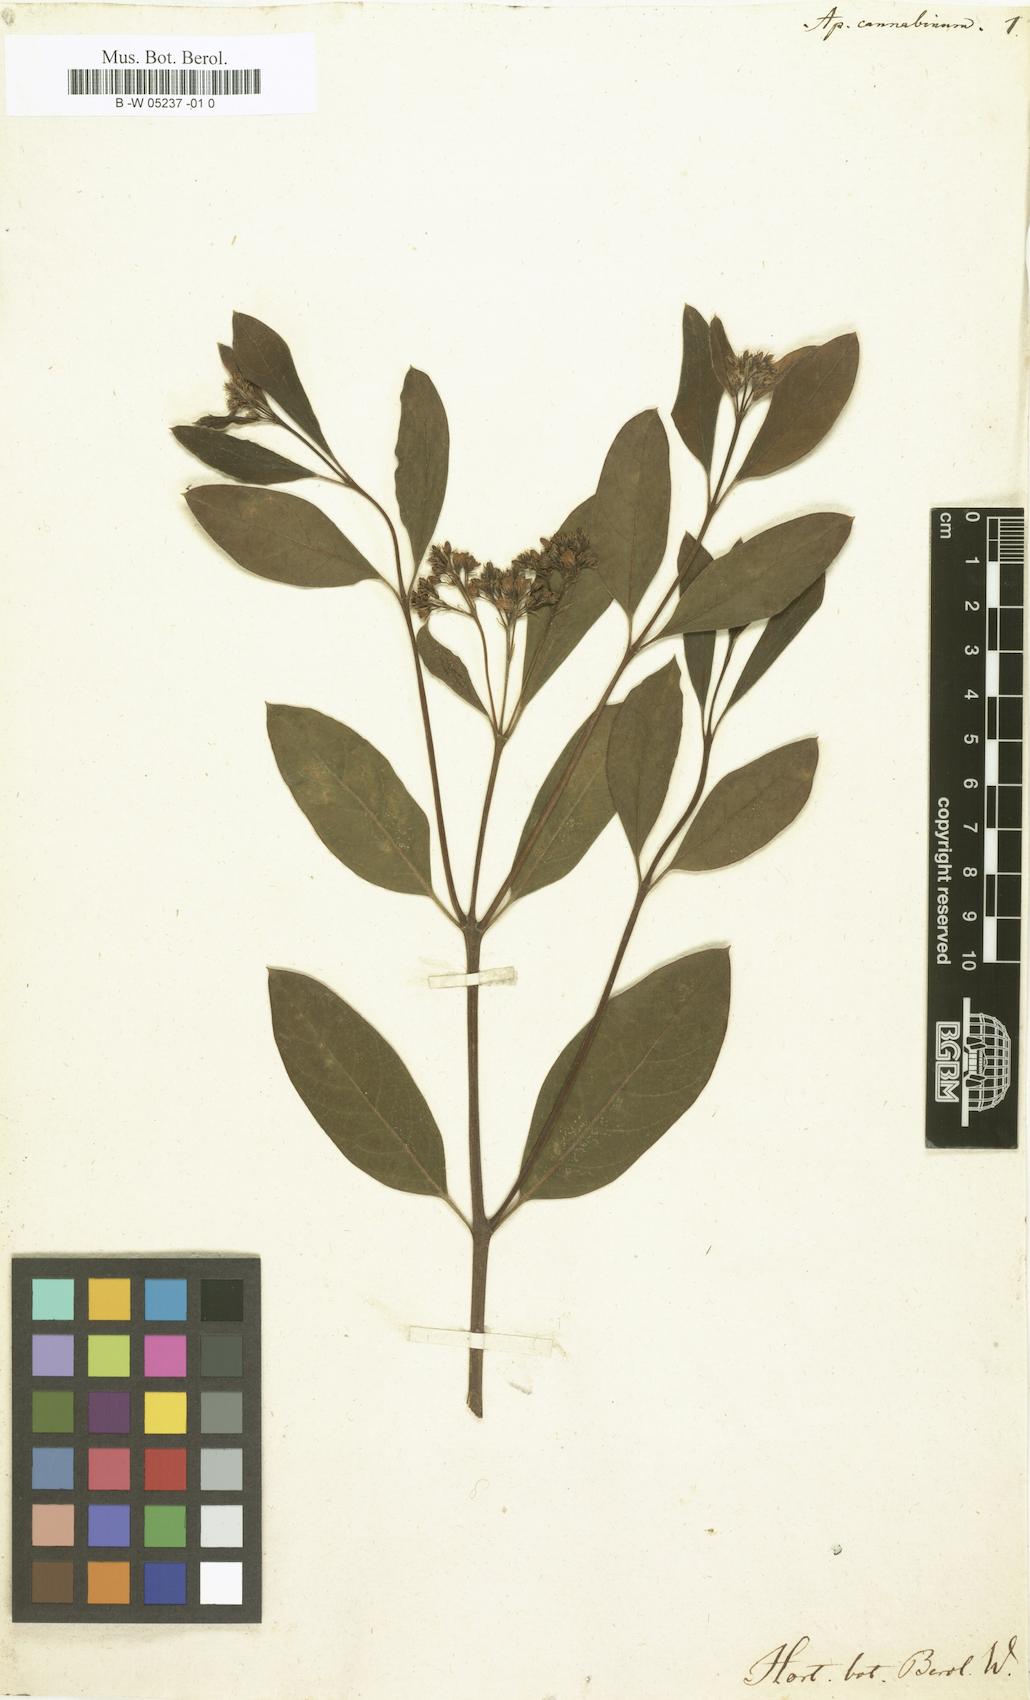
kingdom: Plantae
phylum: Tracheophyta
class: Magnoliopsida
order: Gentianales
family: Apocynaceae
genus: Apocynum
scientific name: Apocynum cannabinum
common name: Hemp dogbane
